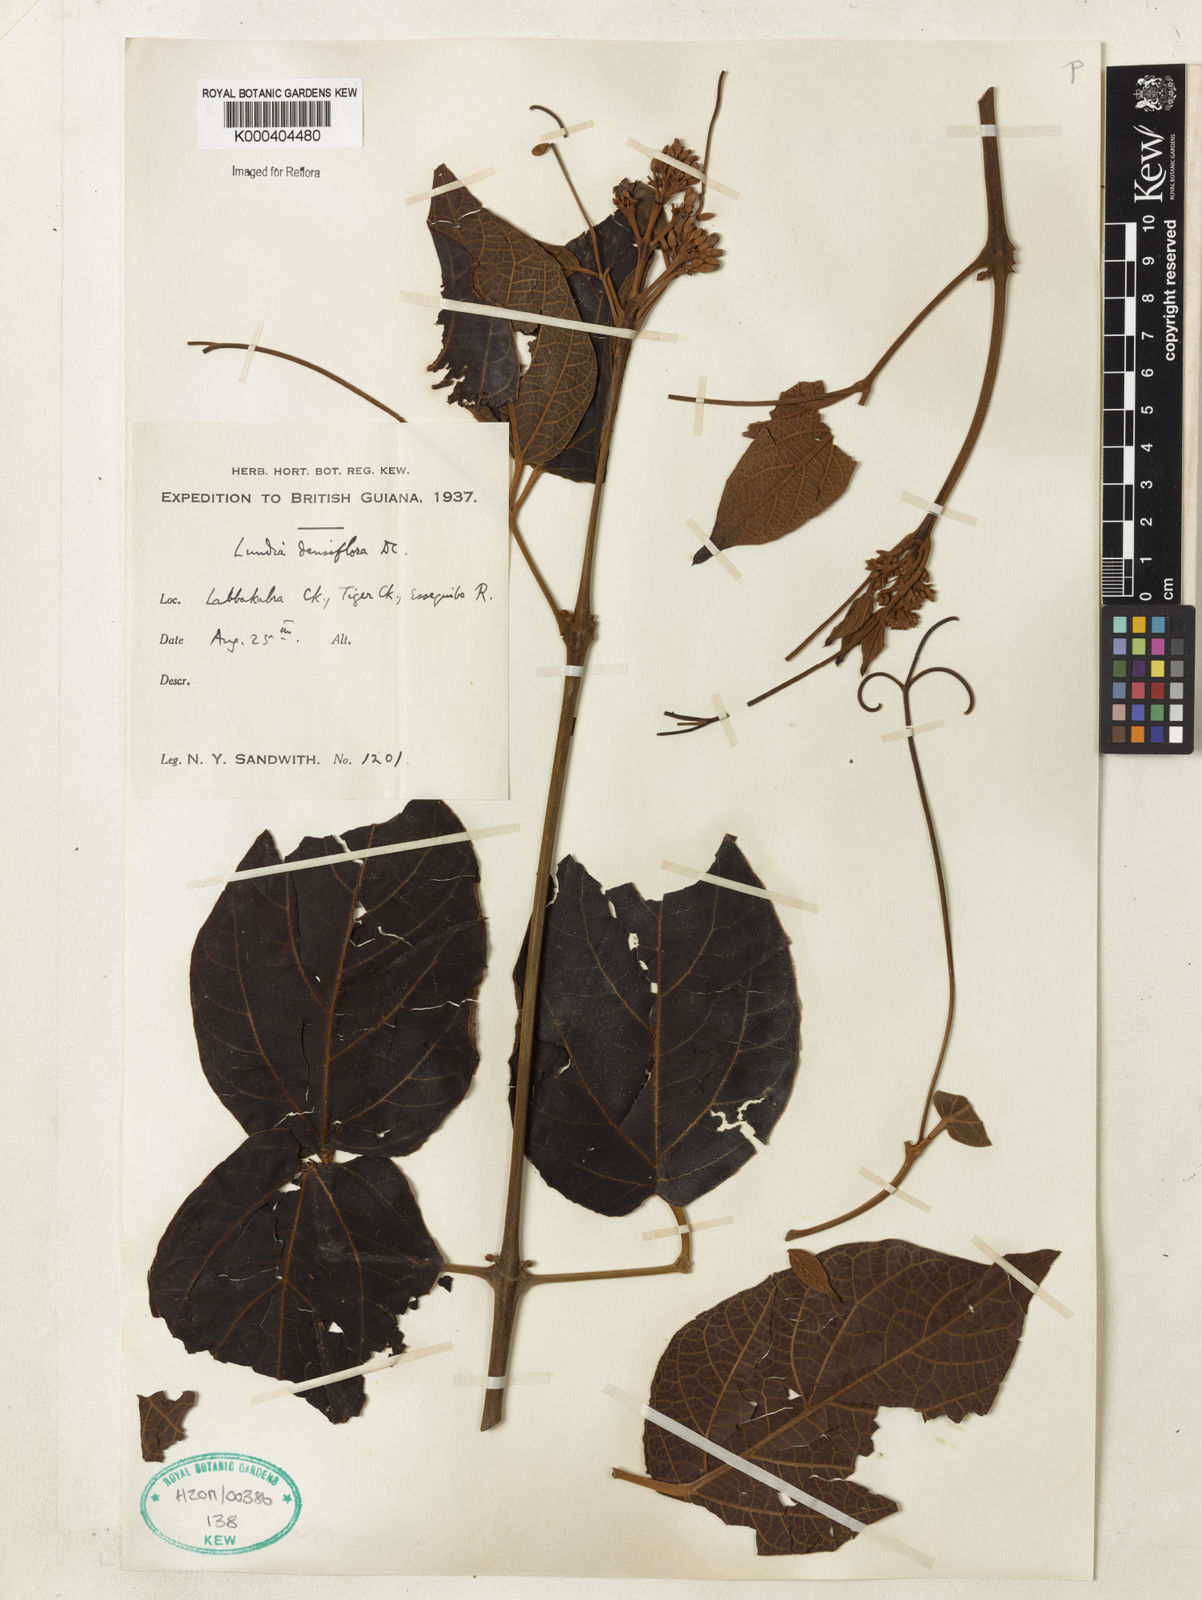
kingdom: Plantae
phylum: Tracheophyta
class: Magnoliopsida
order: Lamiales
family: Bignoniaceae
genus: Lundia
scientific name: Lundia densiflora
